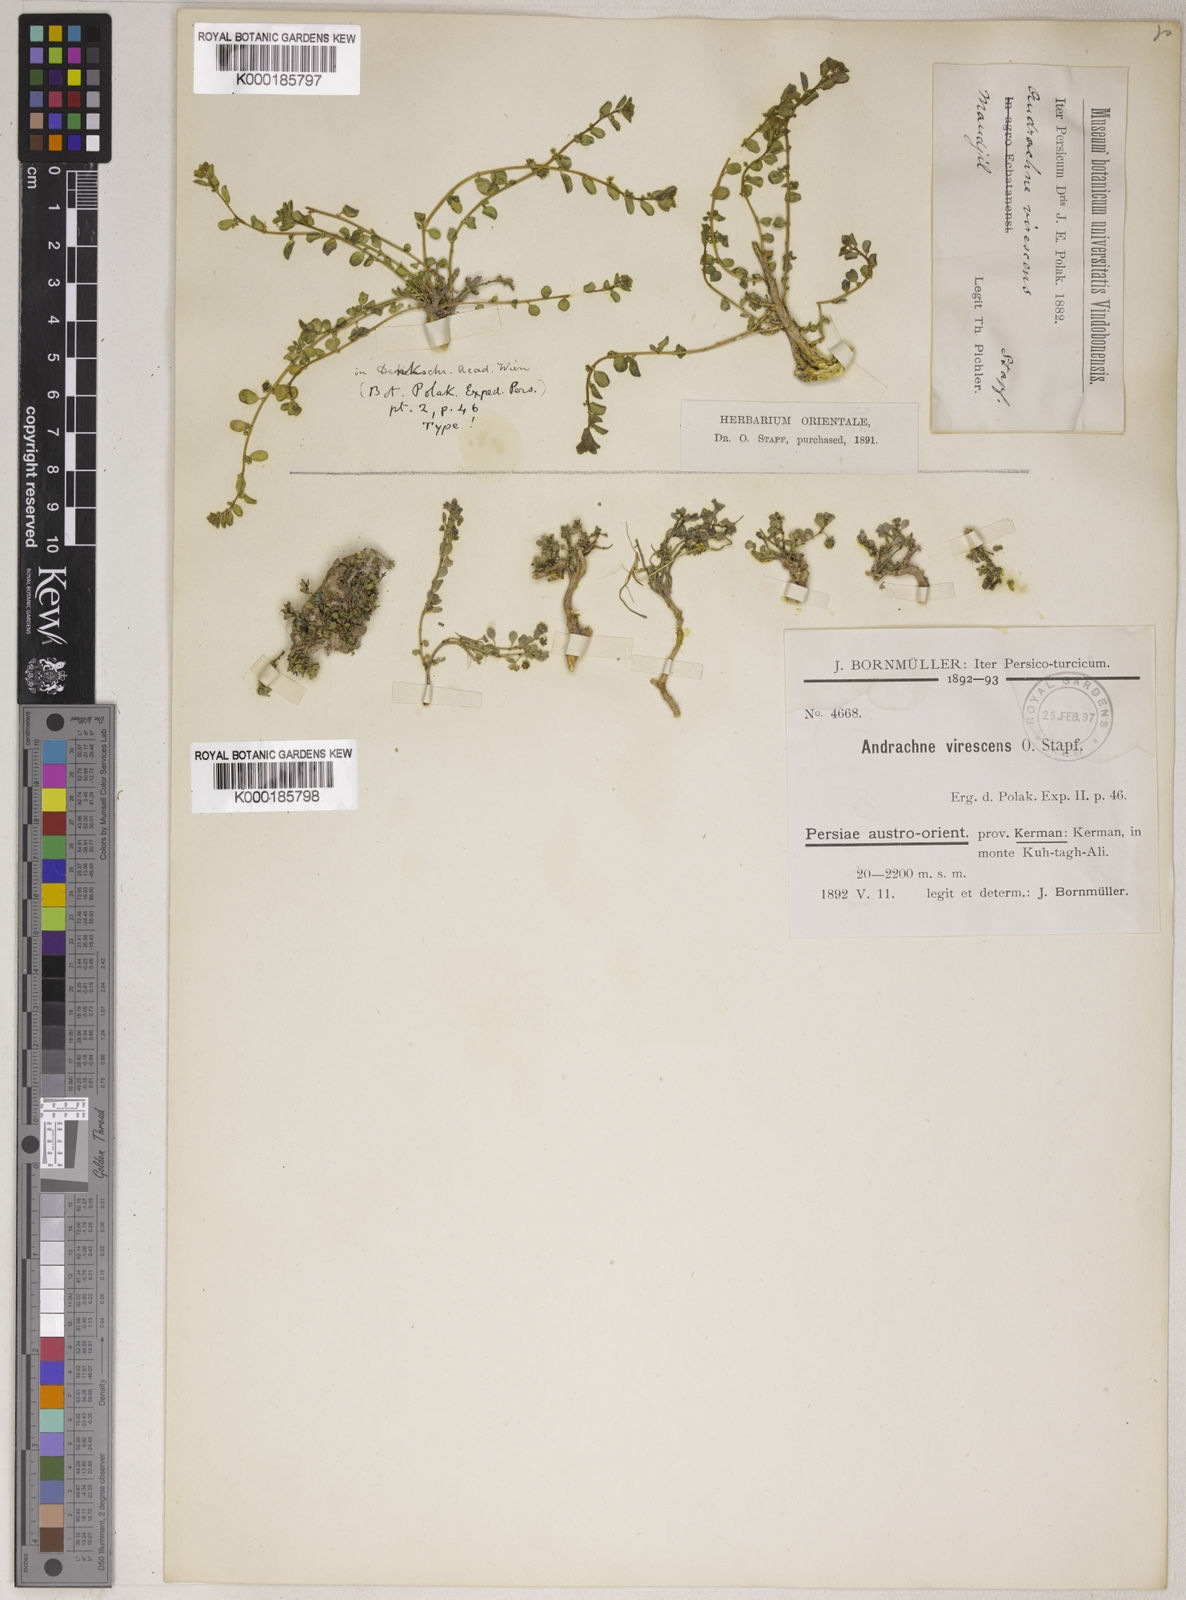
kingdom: Plantae
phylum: Tracheophyta
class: Magnoliopsida
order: Malpighiales
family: Phyllanthaceae
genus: Andrachne
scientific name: Andrachne telephioides
